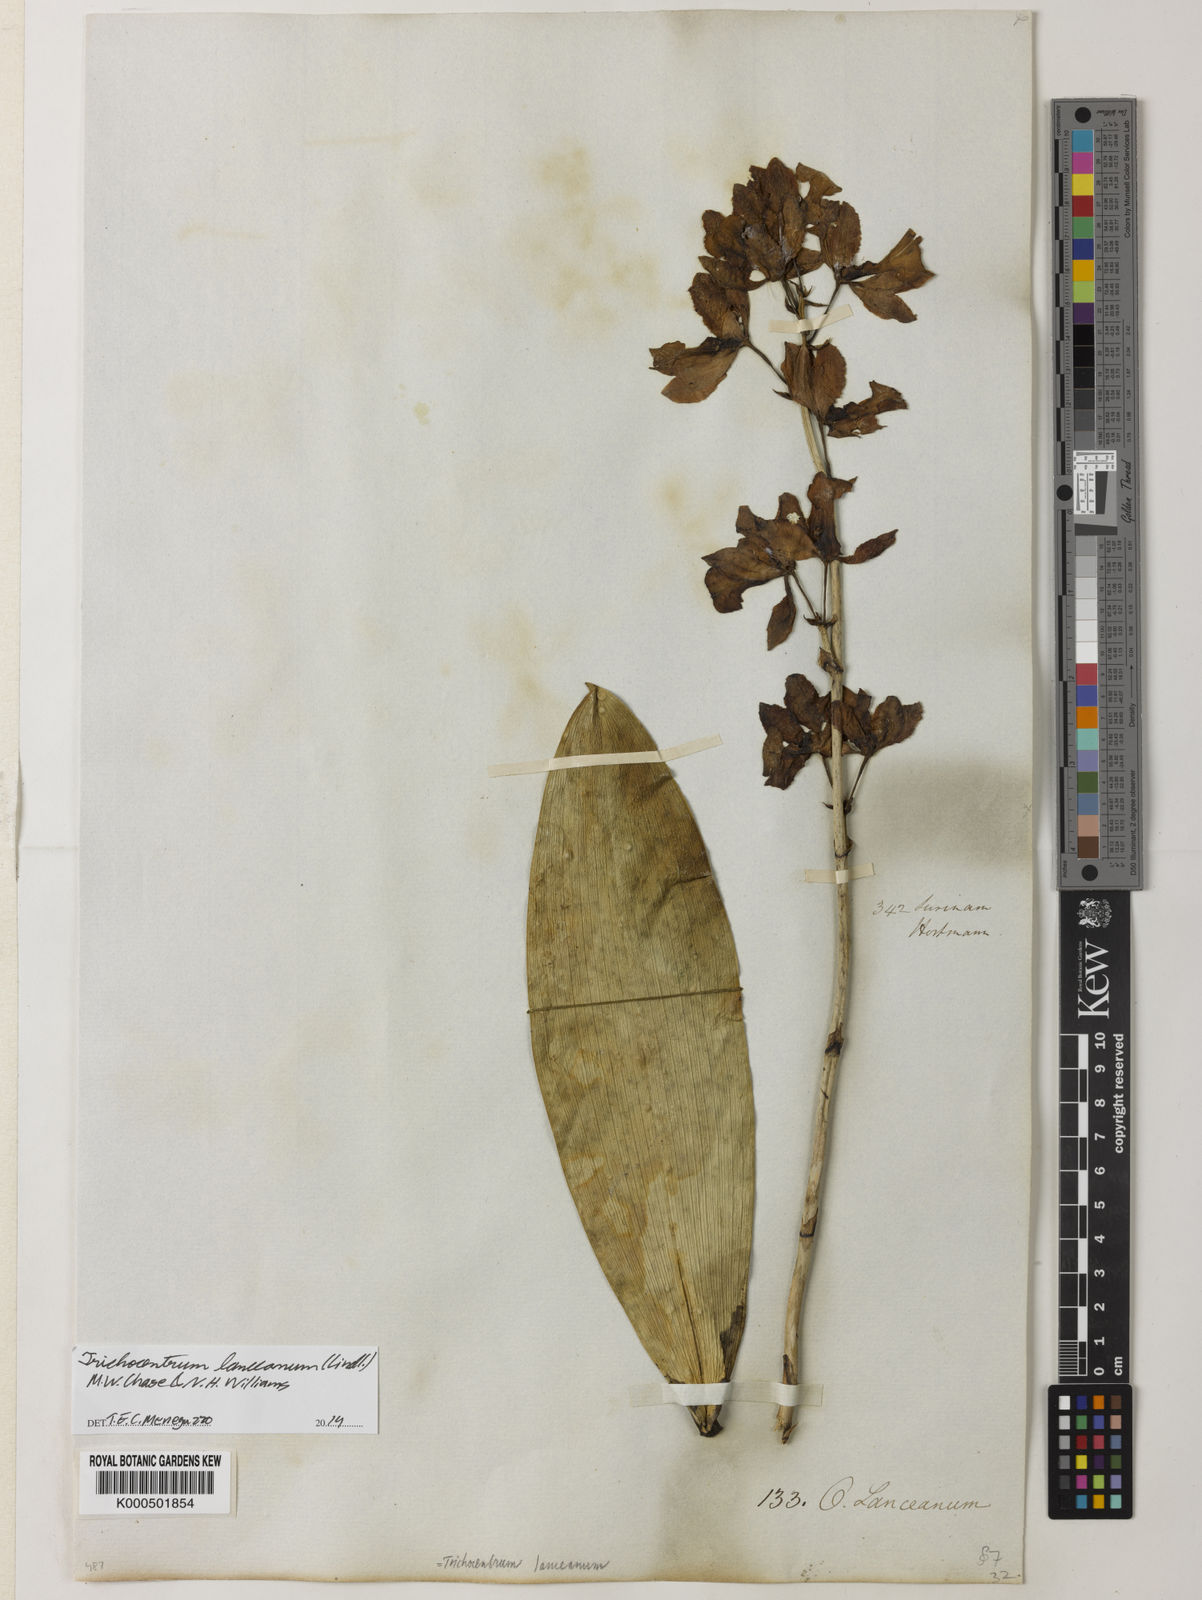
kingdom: Plantae
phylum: Tracheophyta
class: Liliopsida
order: Asparagales
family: Orchidaceae
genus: Trichocentrum
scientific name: Trichocentrum lanceanum
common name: Mule-ear orchid
